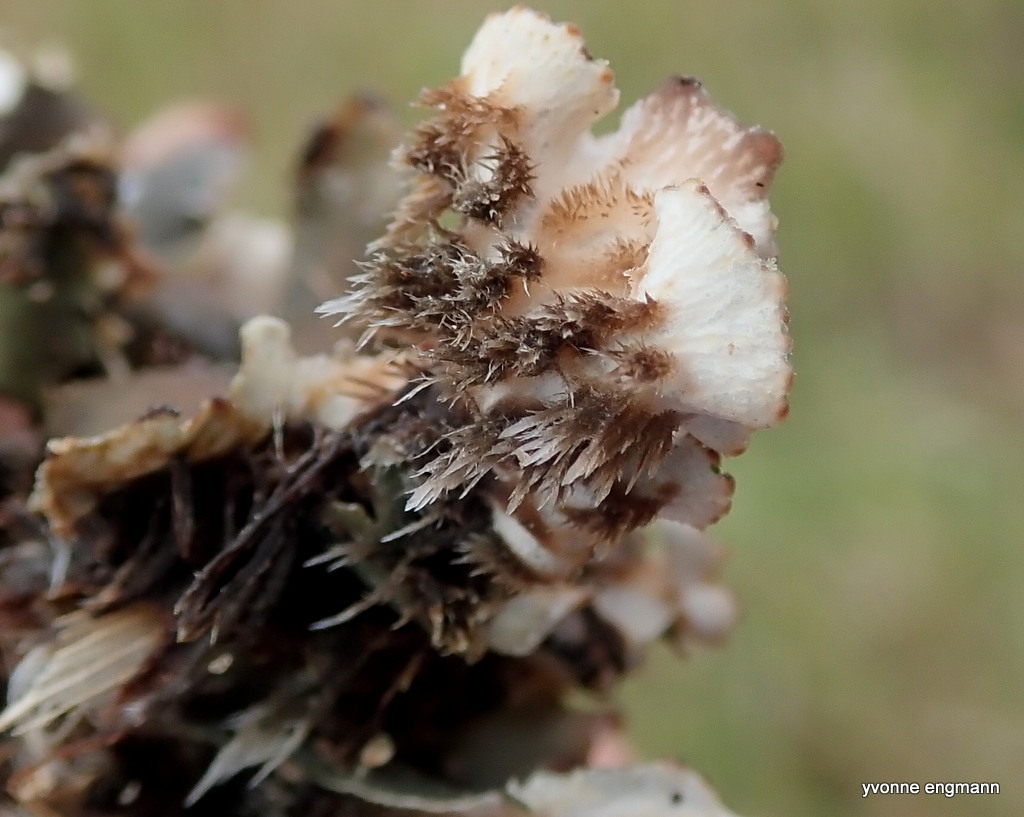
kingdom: Fungi
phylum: Ascomycota
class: Lecanoromycetes
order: Peltigerales
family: Peltigeraceae
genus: Peltigera
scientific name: Peltigera rufescens
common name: brun skjoldlav
